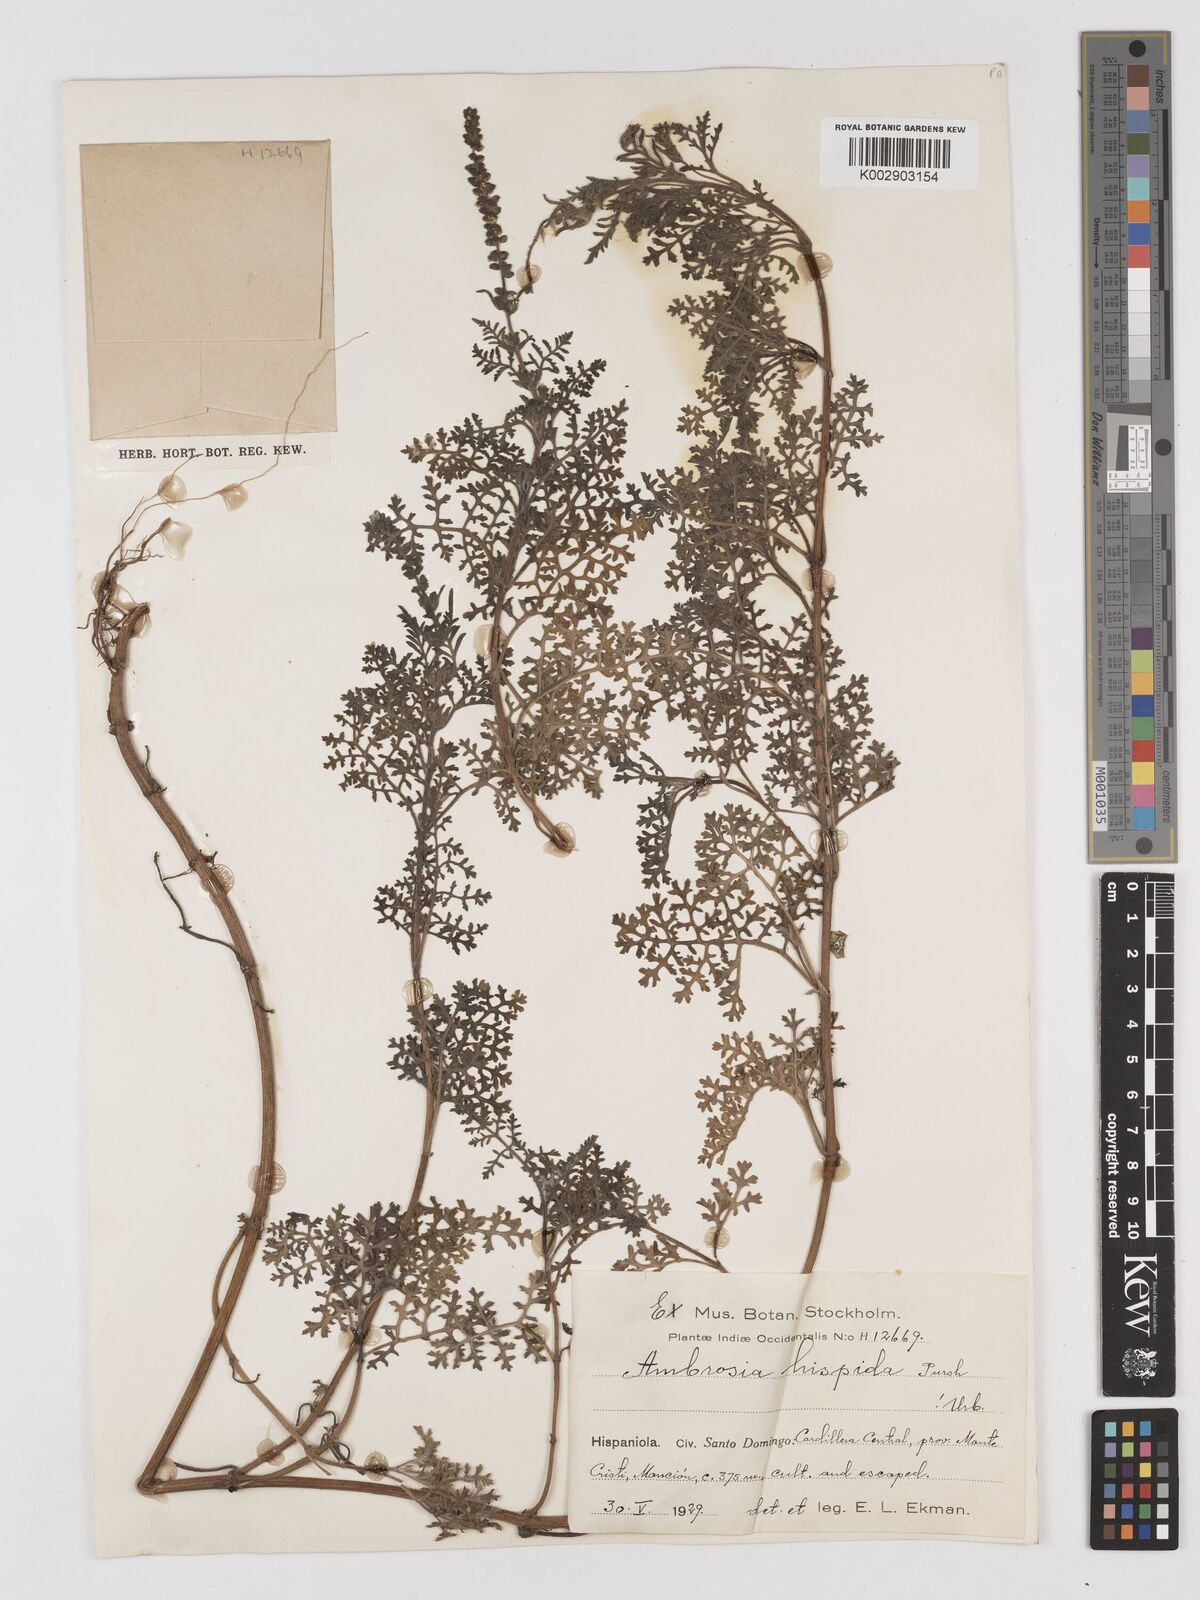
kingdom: Plantae
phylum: Tracheophyta
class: Magnoliopsida
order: Asterales
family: Asteraceae
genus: Ambrosia
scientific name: Ambrosia hispida
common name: Coastal ragweed
